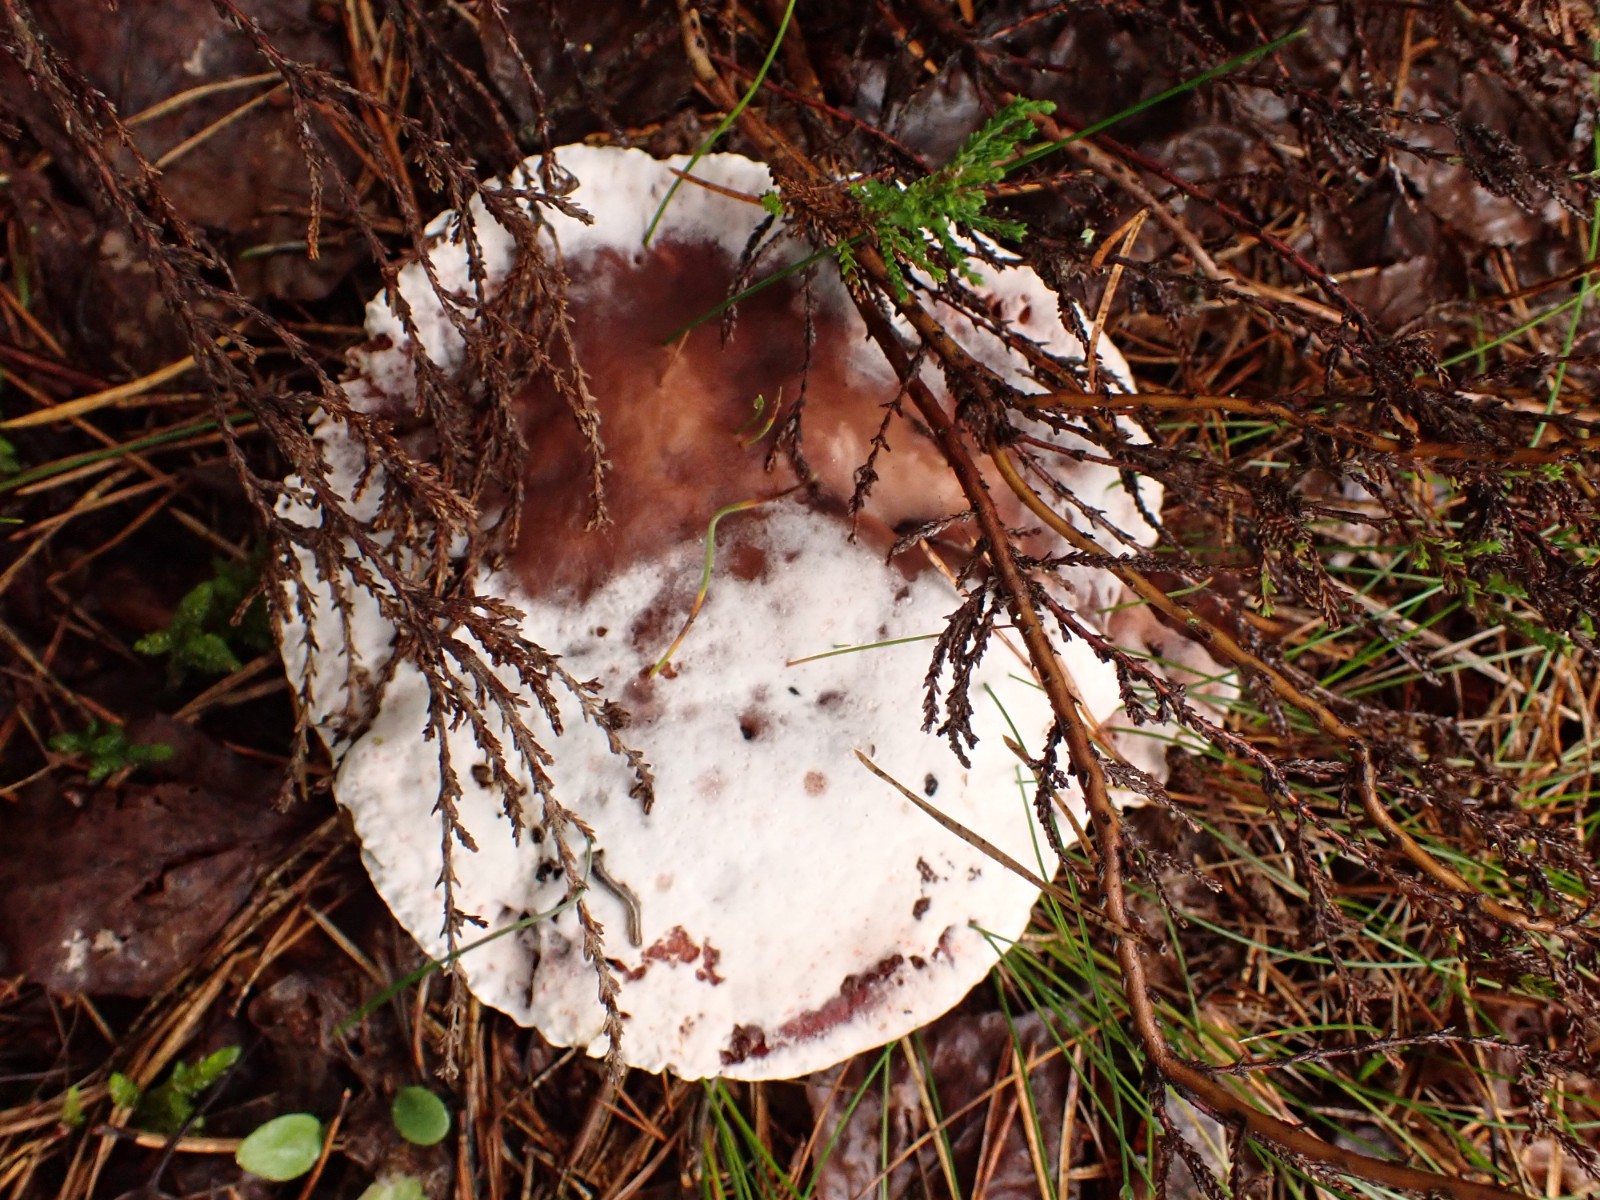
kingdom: Fungi
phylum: Basidiomycota
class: Agaricomycetes
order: Thelephorales
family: Bankeraceae
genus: Hydnellum
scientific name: Hydnellum peckii
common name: bitter korkpigsvamp
